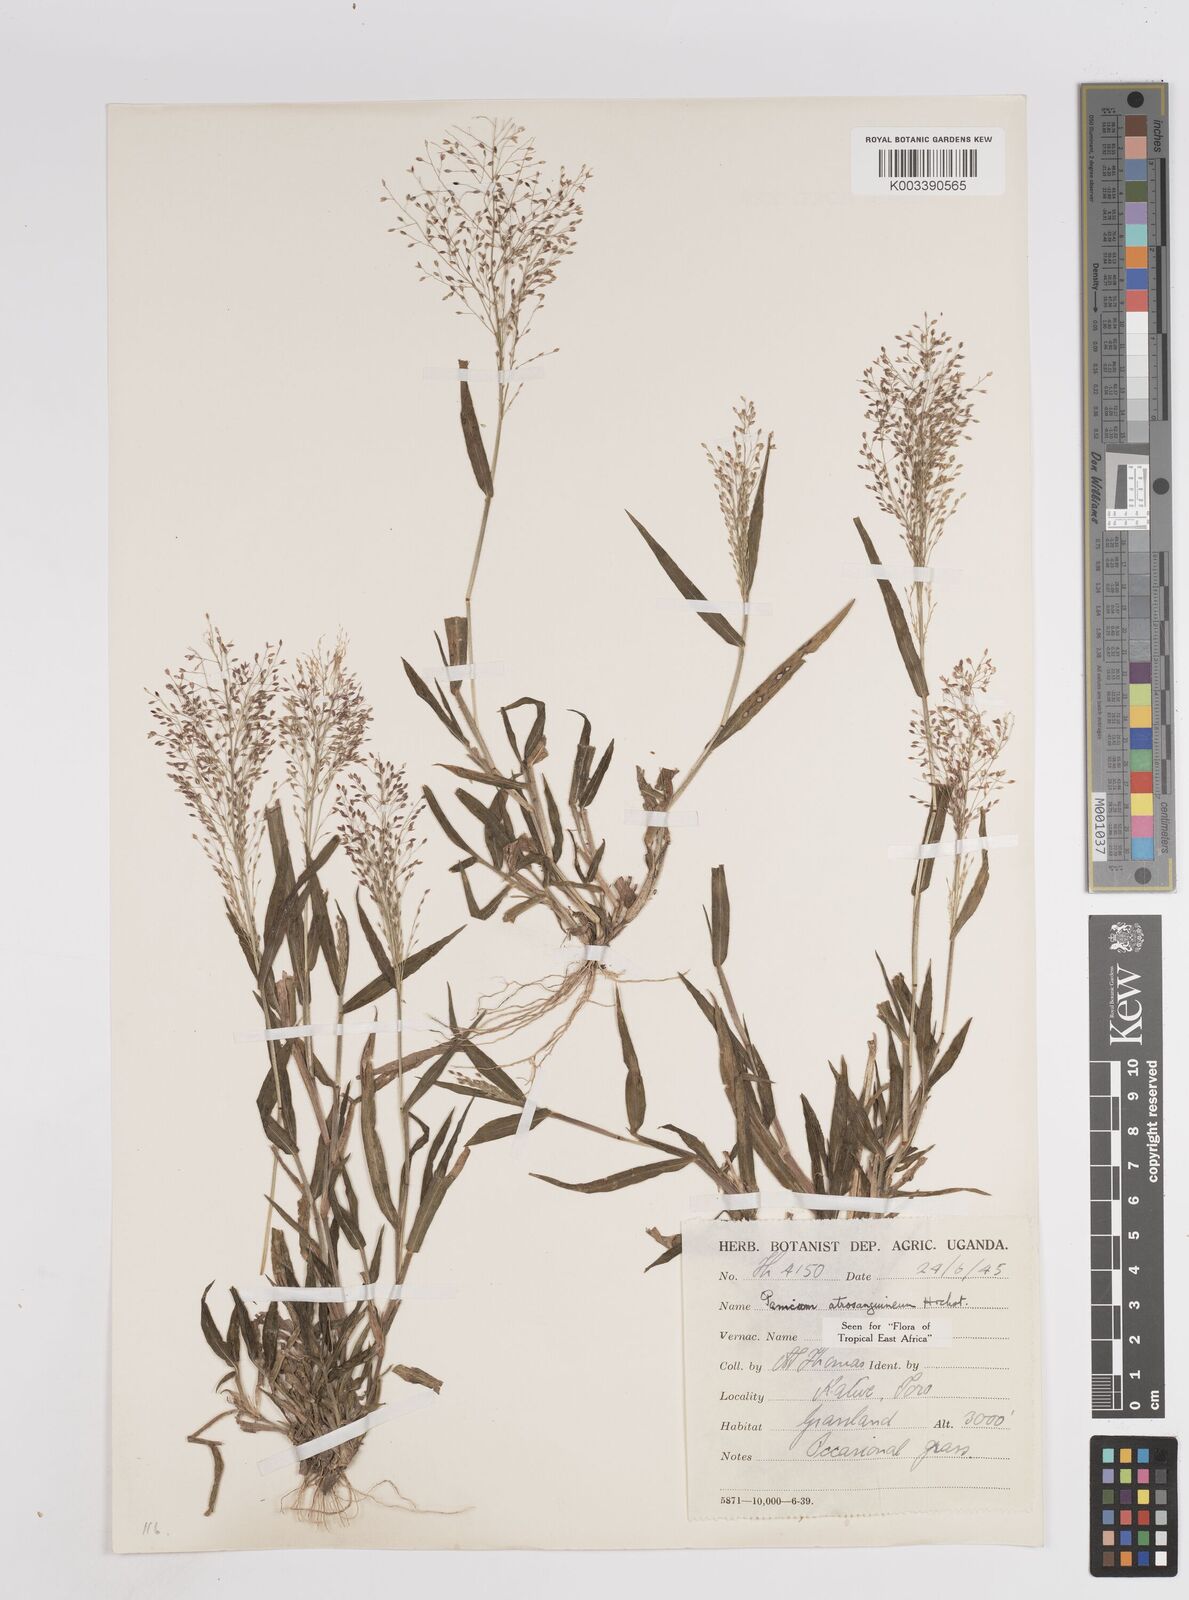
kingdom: Plantae
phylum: Tracheophyta
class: Liliopsida
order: Poales
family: Poaceae
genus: Panicum
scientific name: Panicum atrosanguineum
